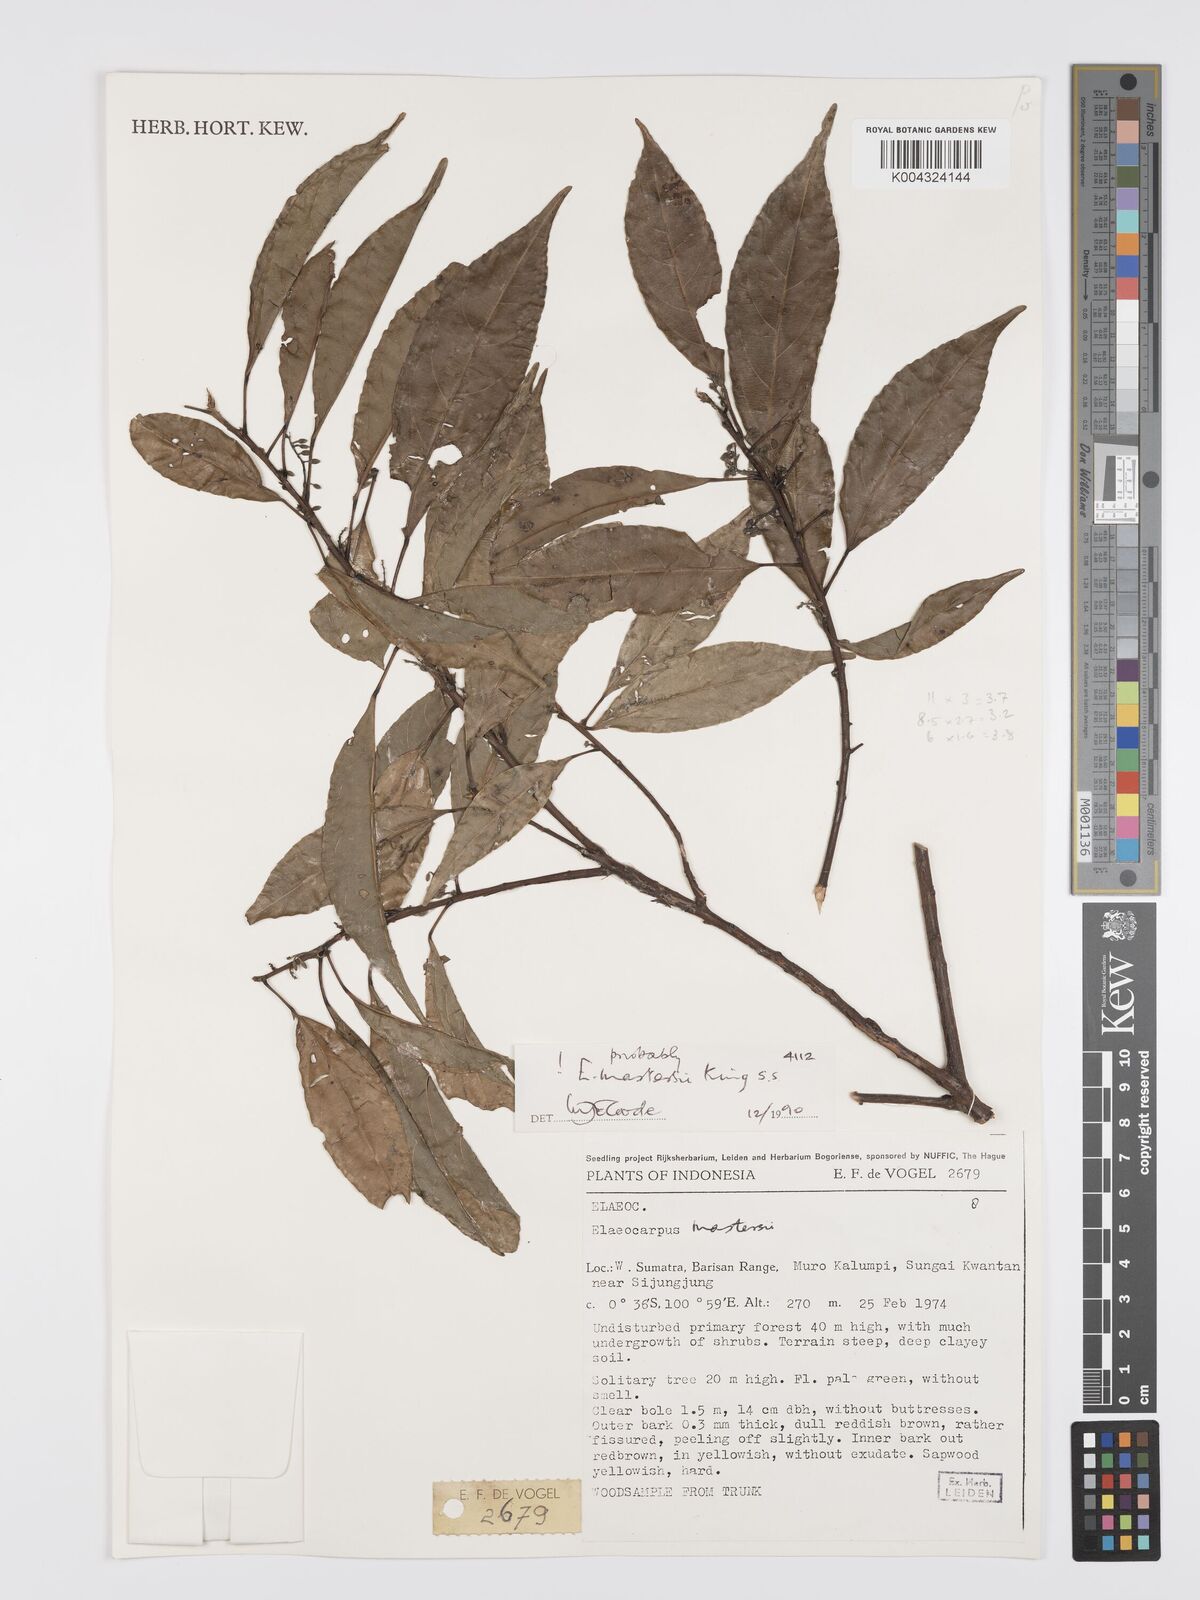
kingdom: Plantae
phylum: Tracheophyta
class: Magnoliopsida
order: Oxalidales
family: Elaeocarpaceae
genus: Elaeocarpus
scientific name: Elaeocarpus mastersii
